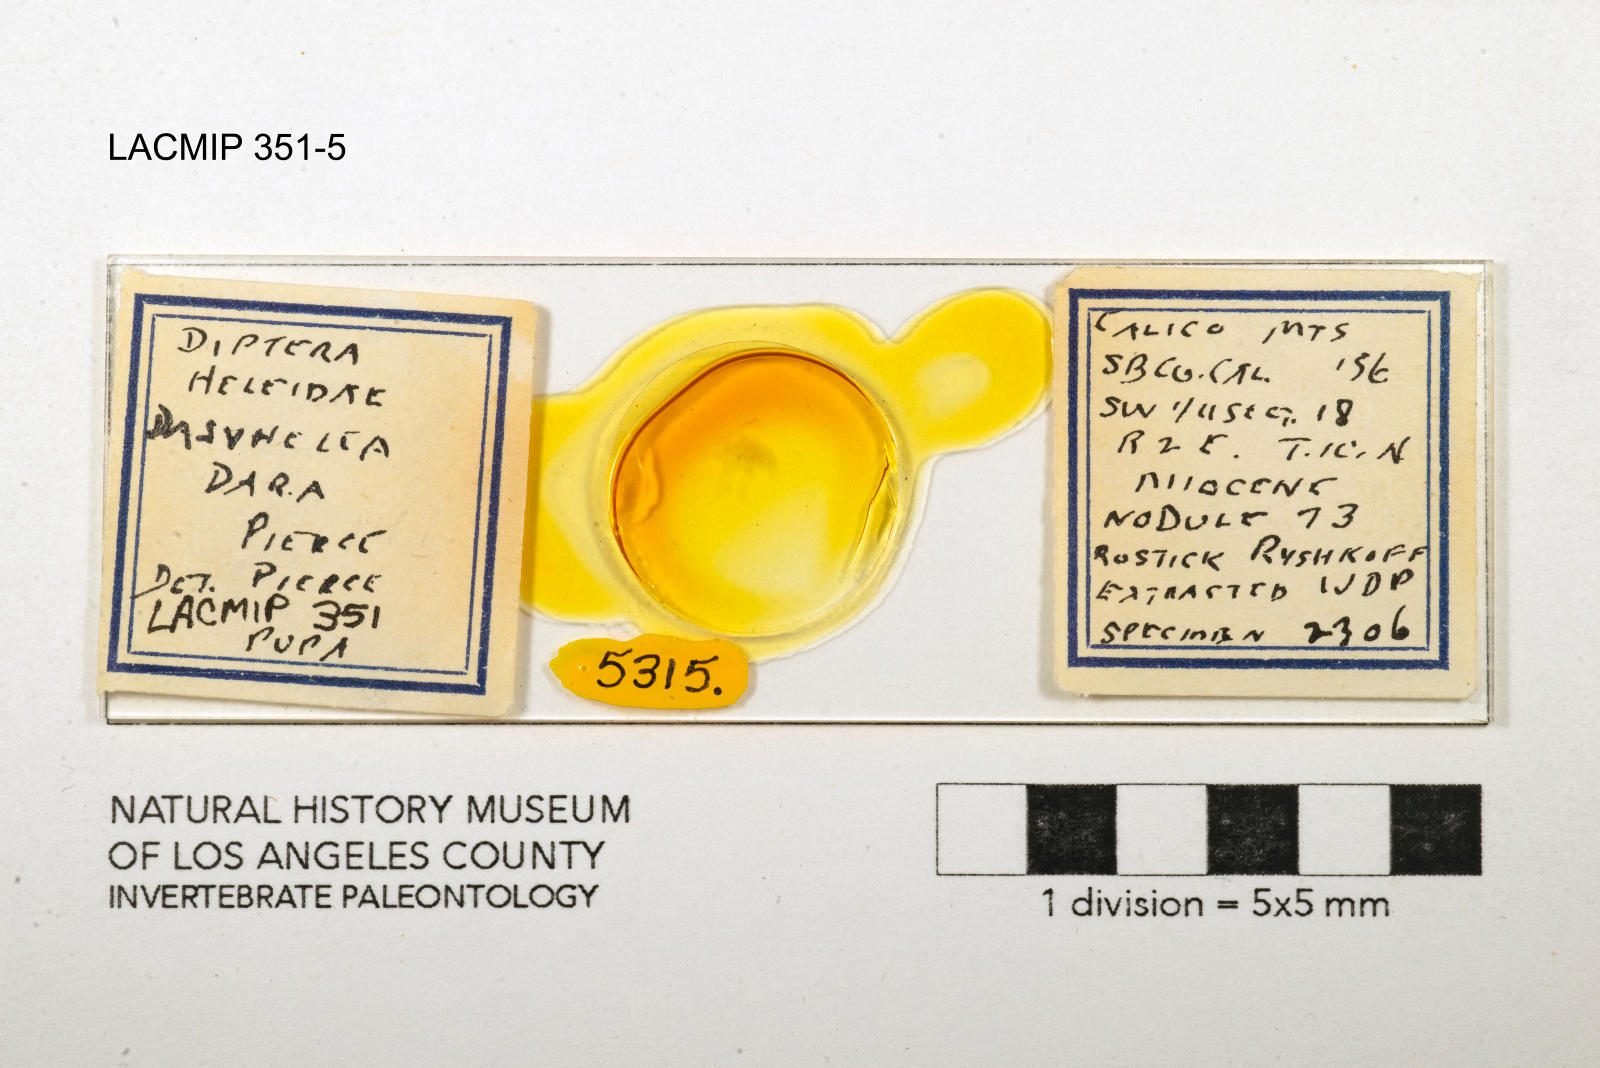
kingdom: Animalia
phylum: Arthropoda
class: Insecta
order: Diptera
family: Ceratopogonidae
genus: Dasyhelea
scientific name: Dasyhelea dara
